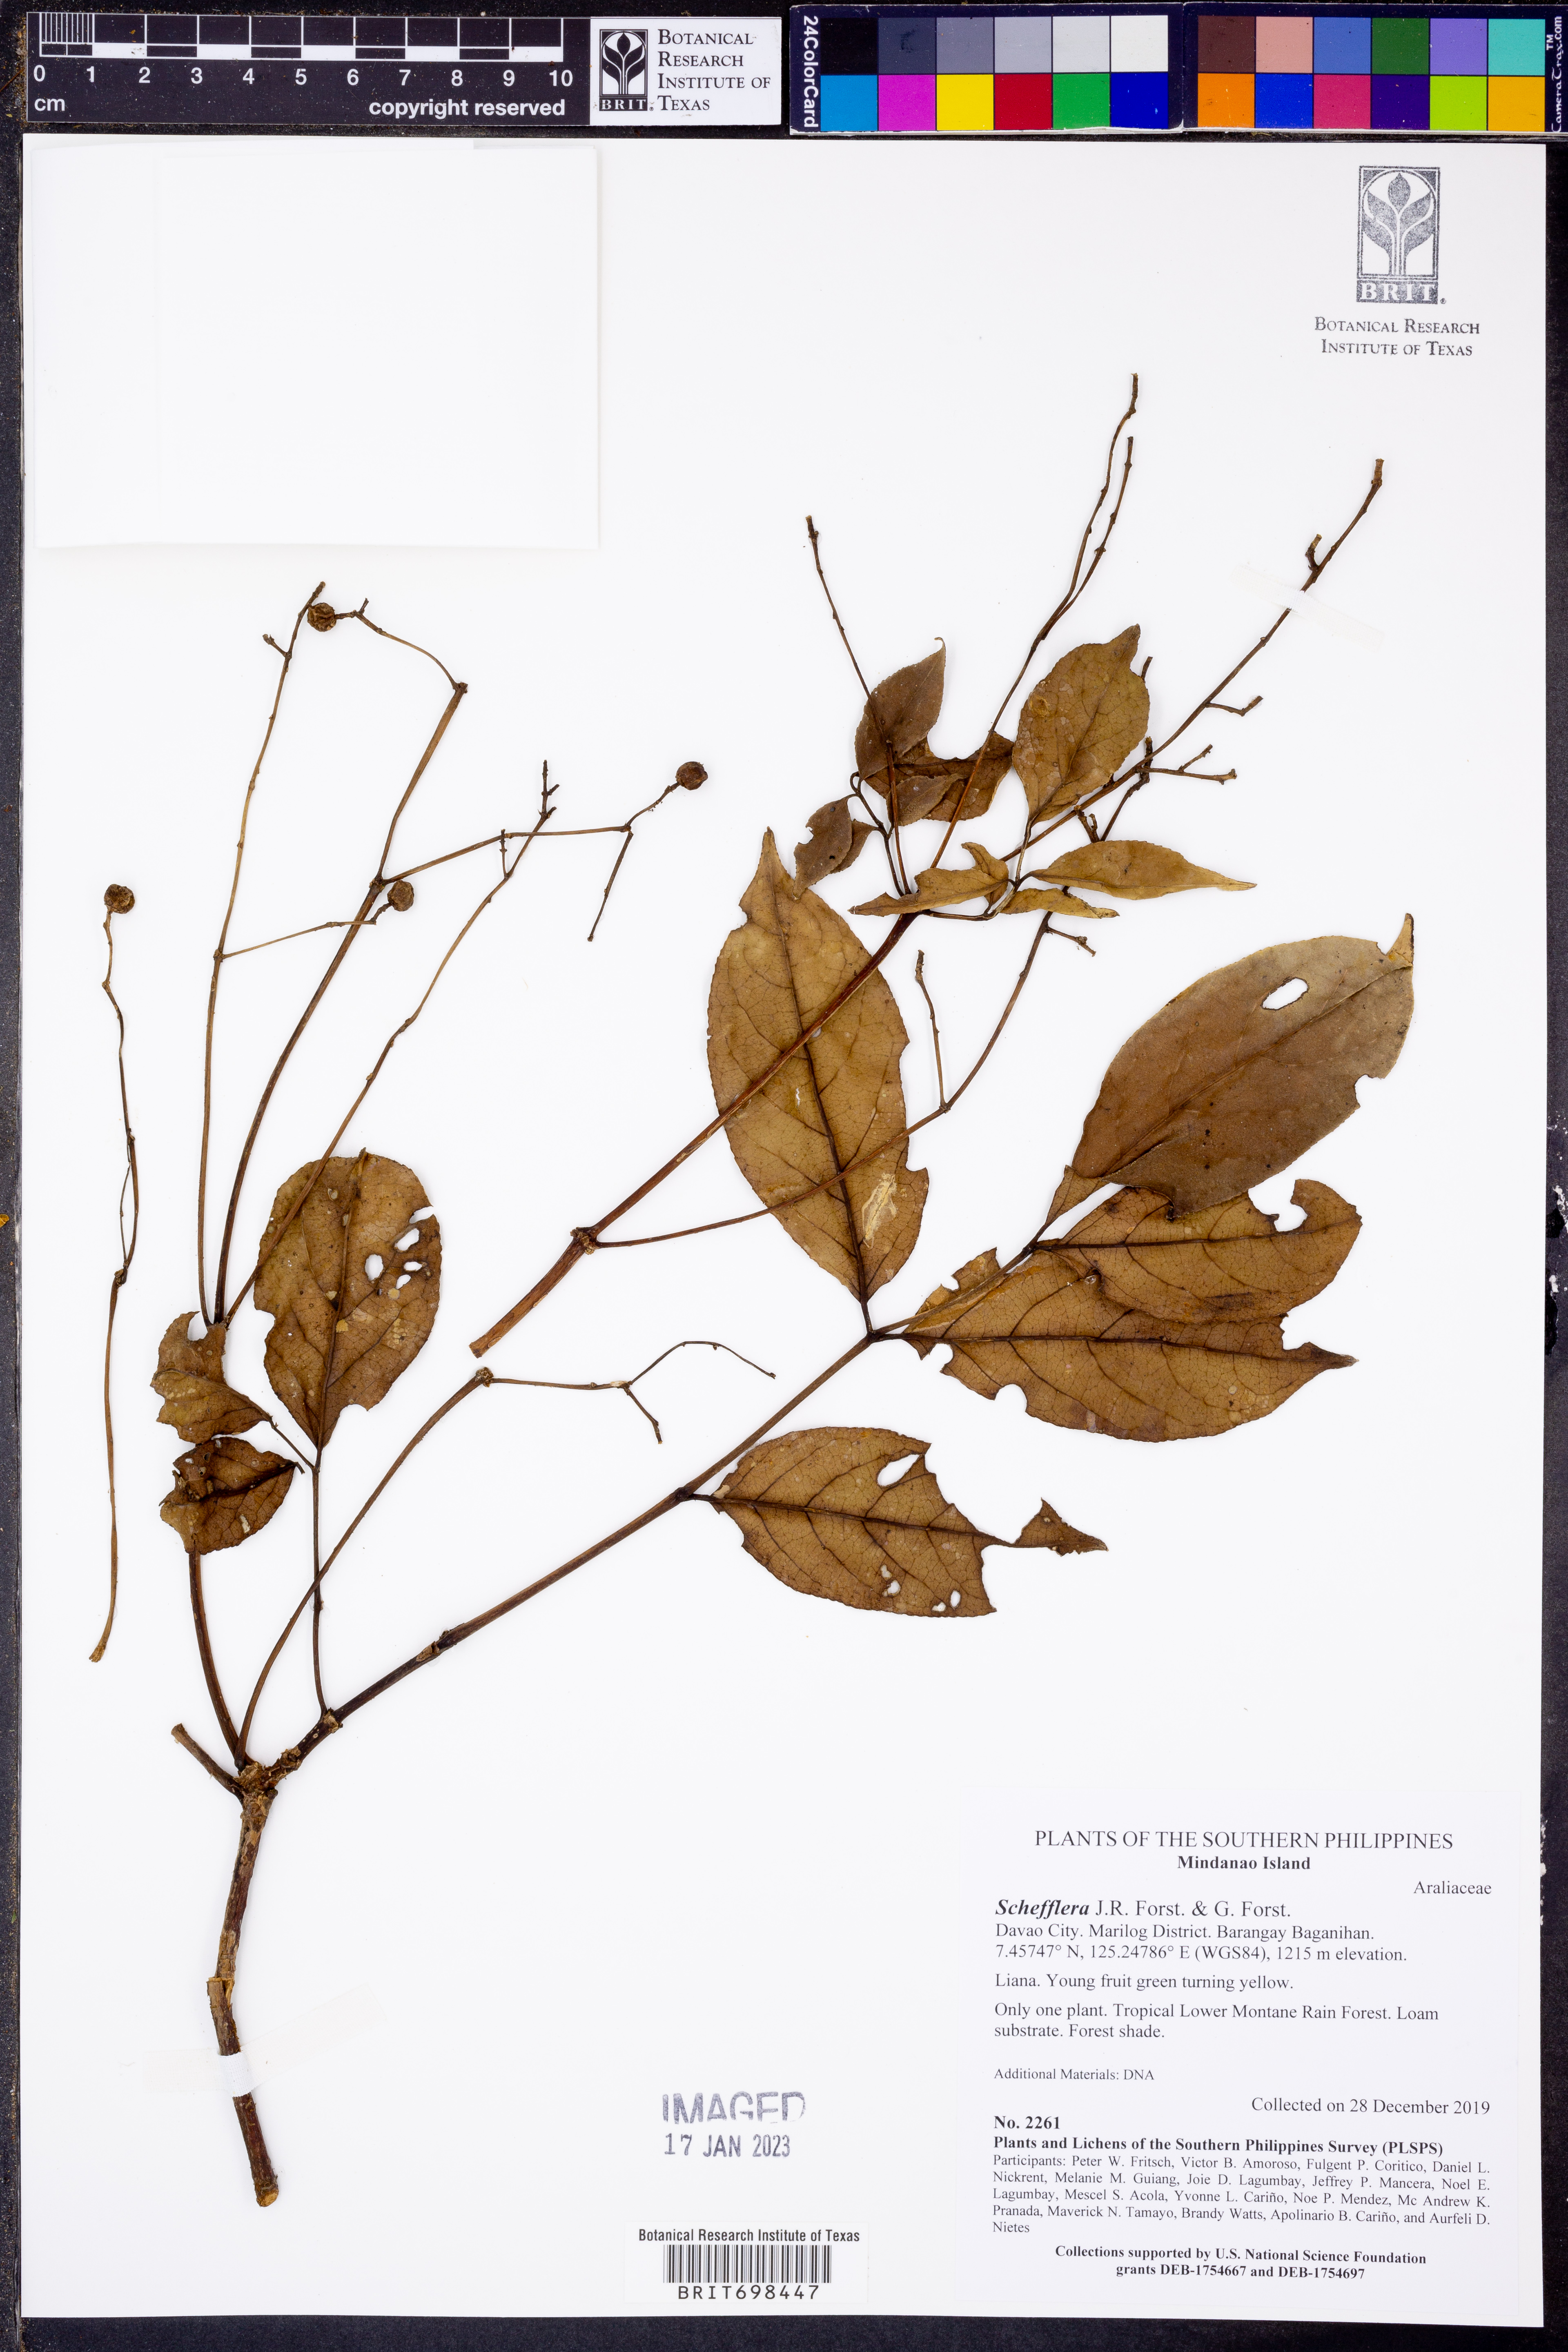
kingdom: Plantae
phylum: Tracheophyta
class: Magnoliopsida
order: Apiales
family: Araliaceae
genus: Schefflera
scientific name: Schefflera
